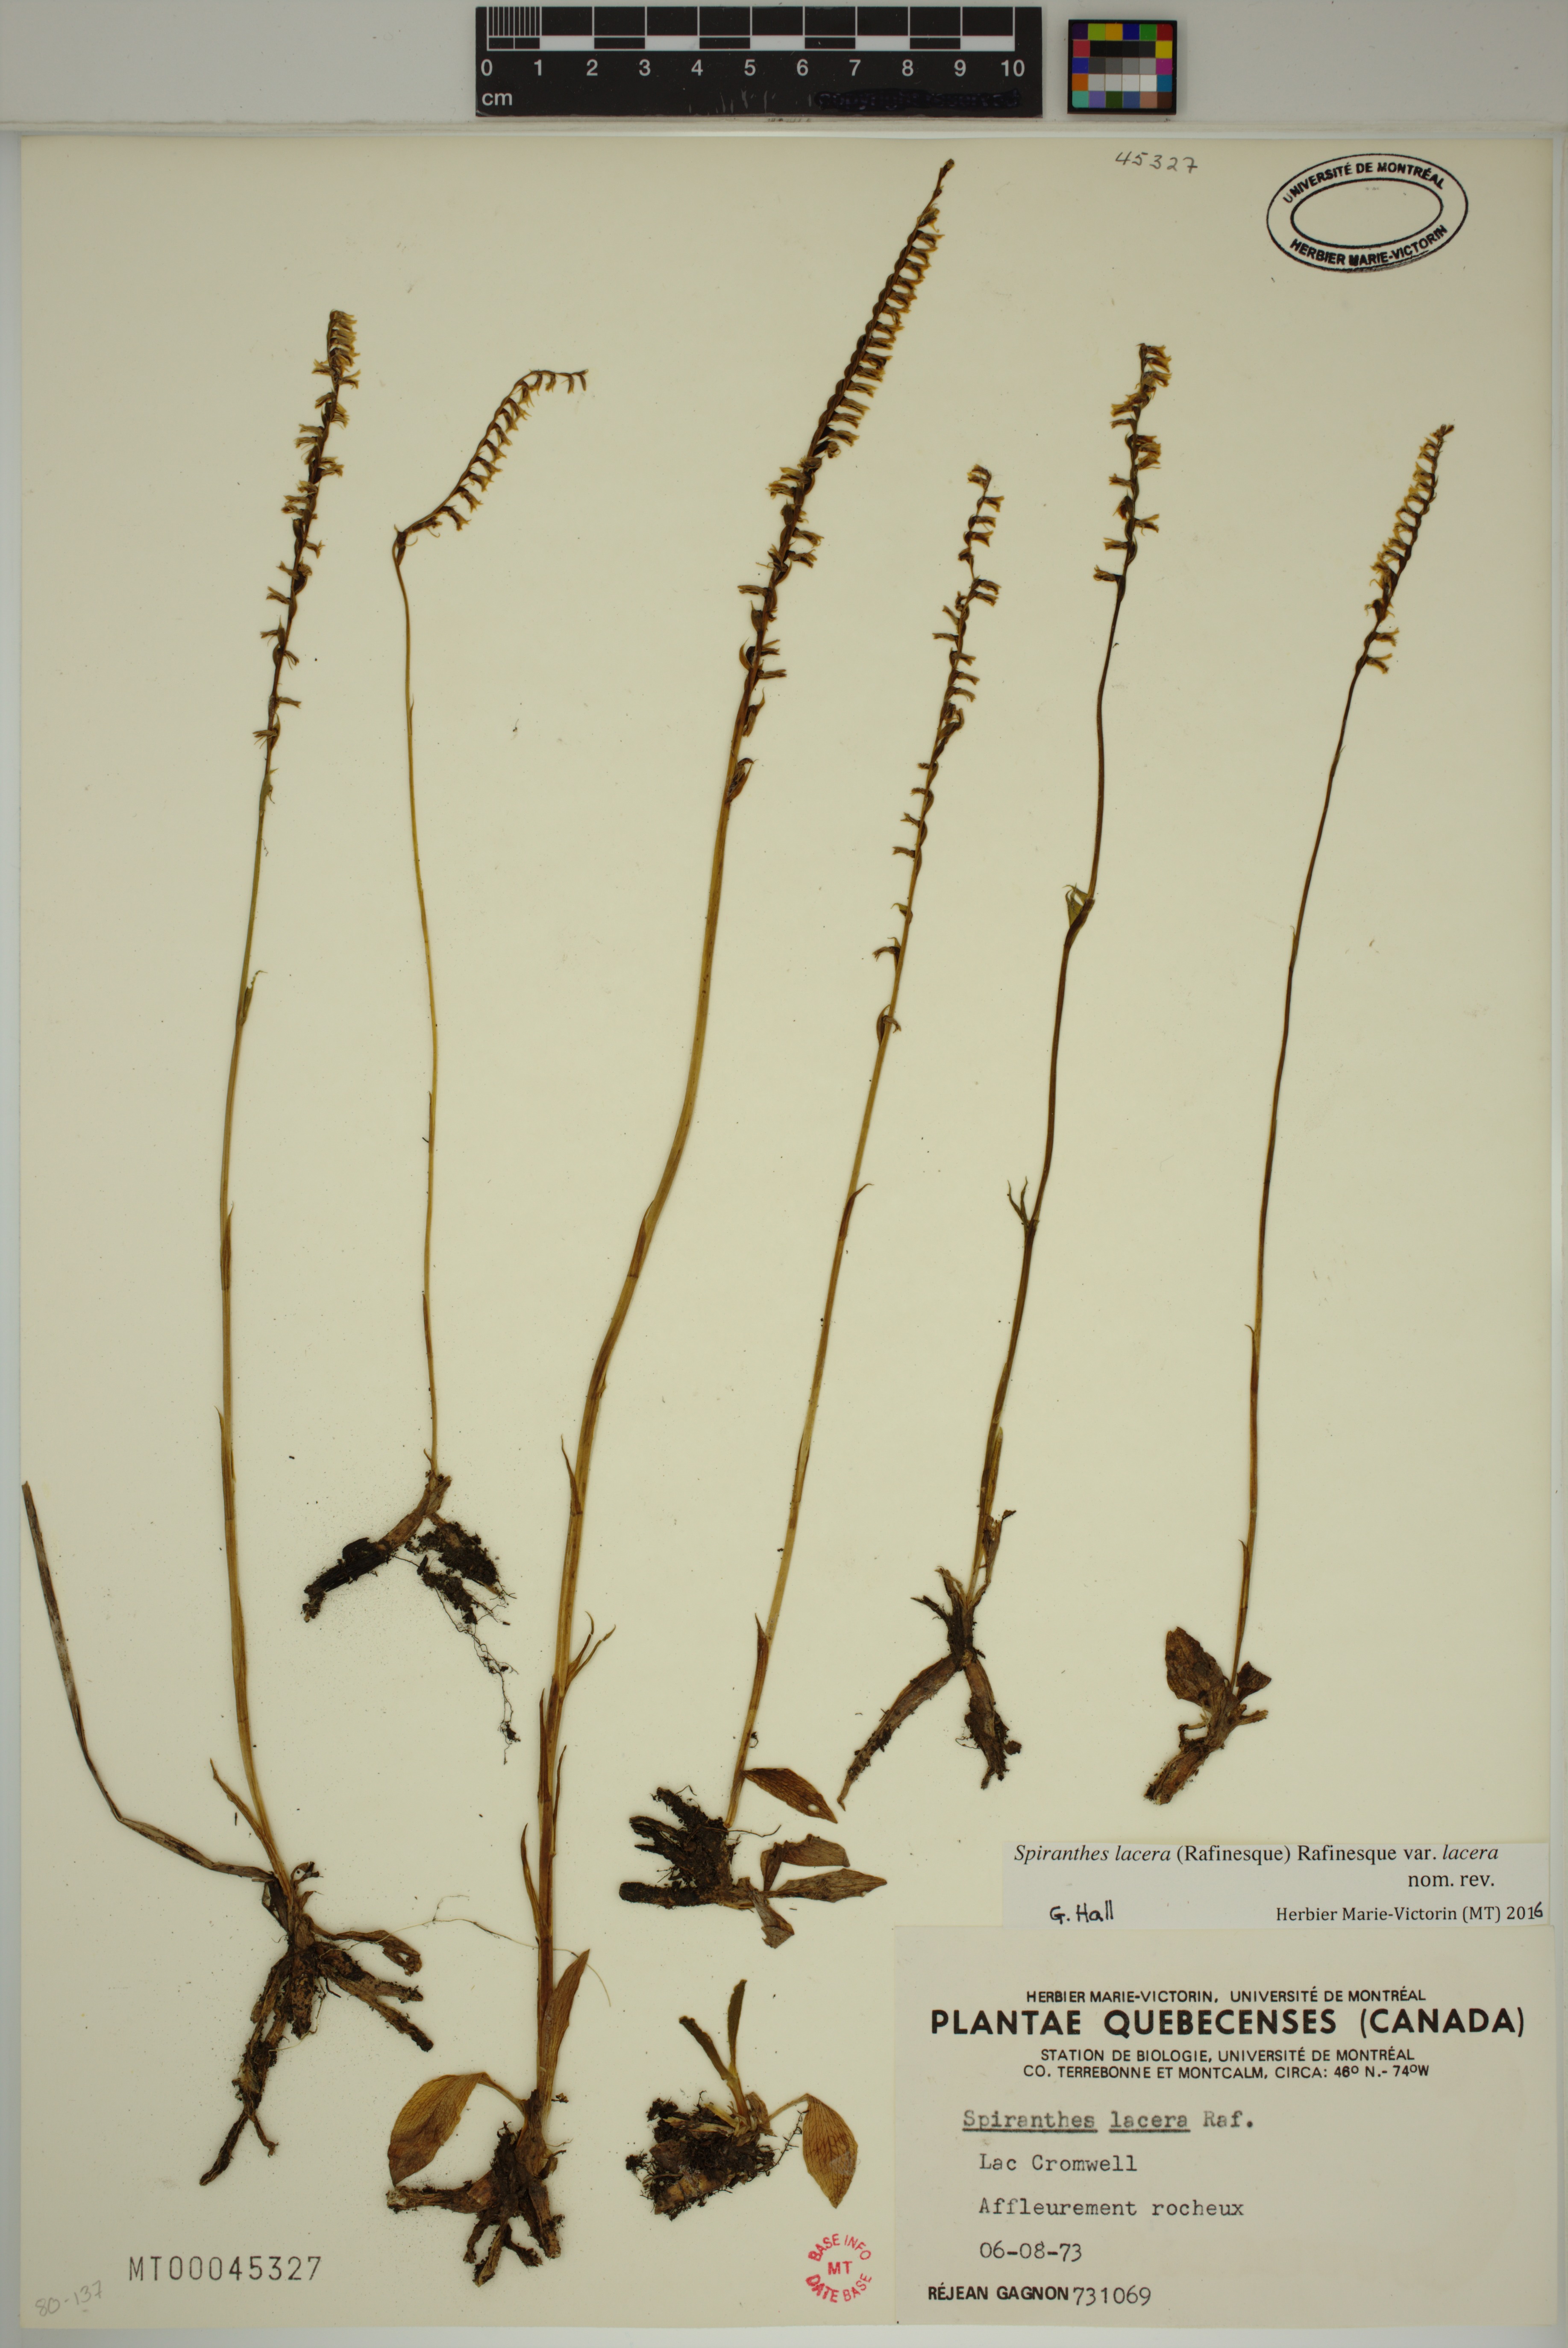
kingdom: Plantae
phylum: Tracheophyta
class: Liliopsida
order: Asparagales
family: Orchidaceae
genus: Spiranthes
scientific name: Spiranthes lacera
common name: Northern slender ladies'-tresses
